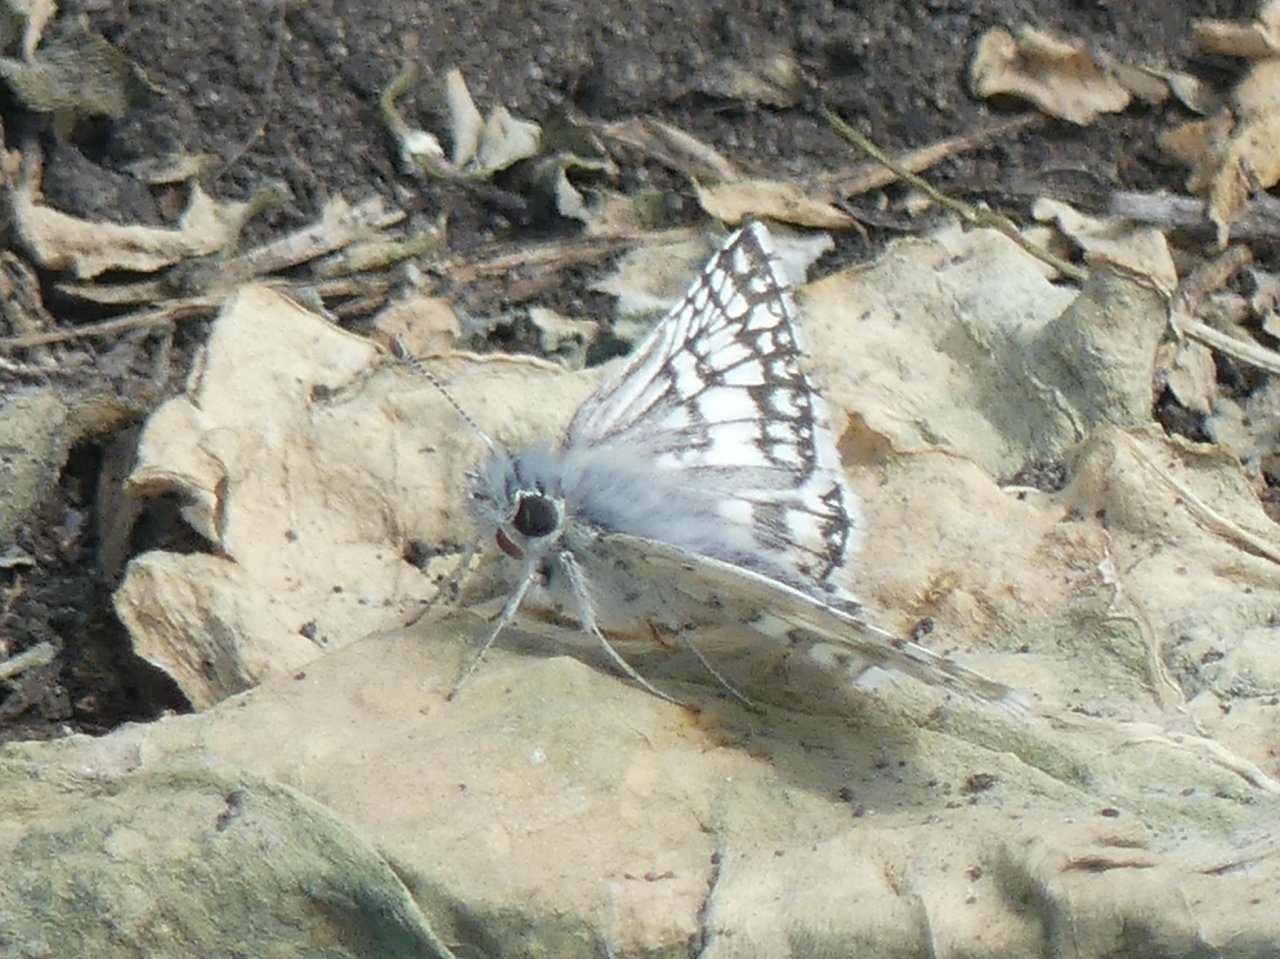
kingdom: Animalia
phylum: Arthropoda
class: Insecta
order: Lepidoptera
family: Hesperiidae
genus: Pyrgus
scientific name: Pyrgus communis
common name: Common Checkered-Skipper
